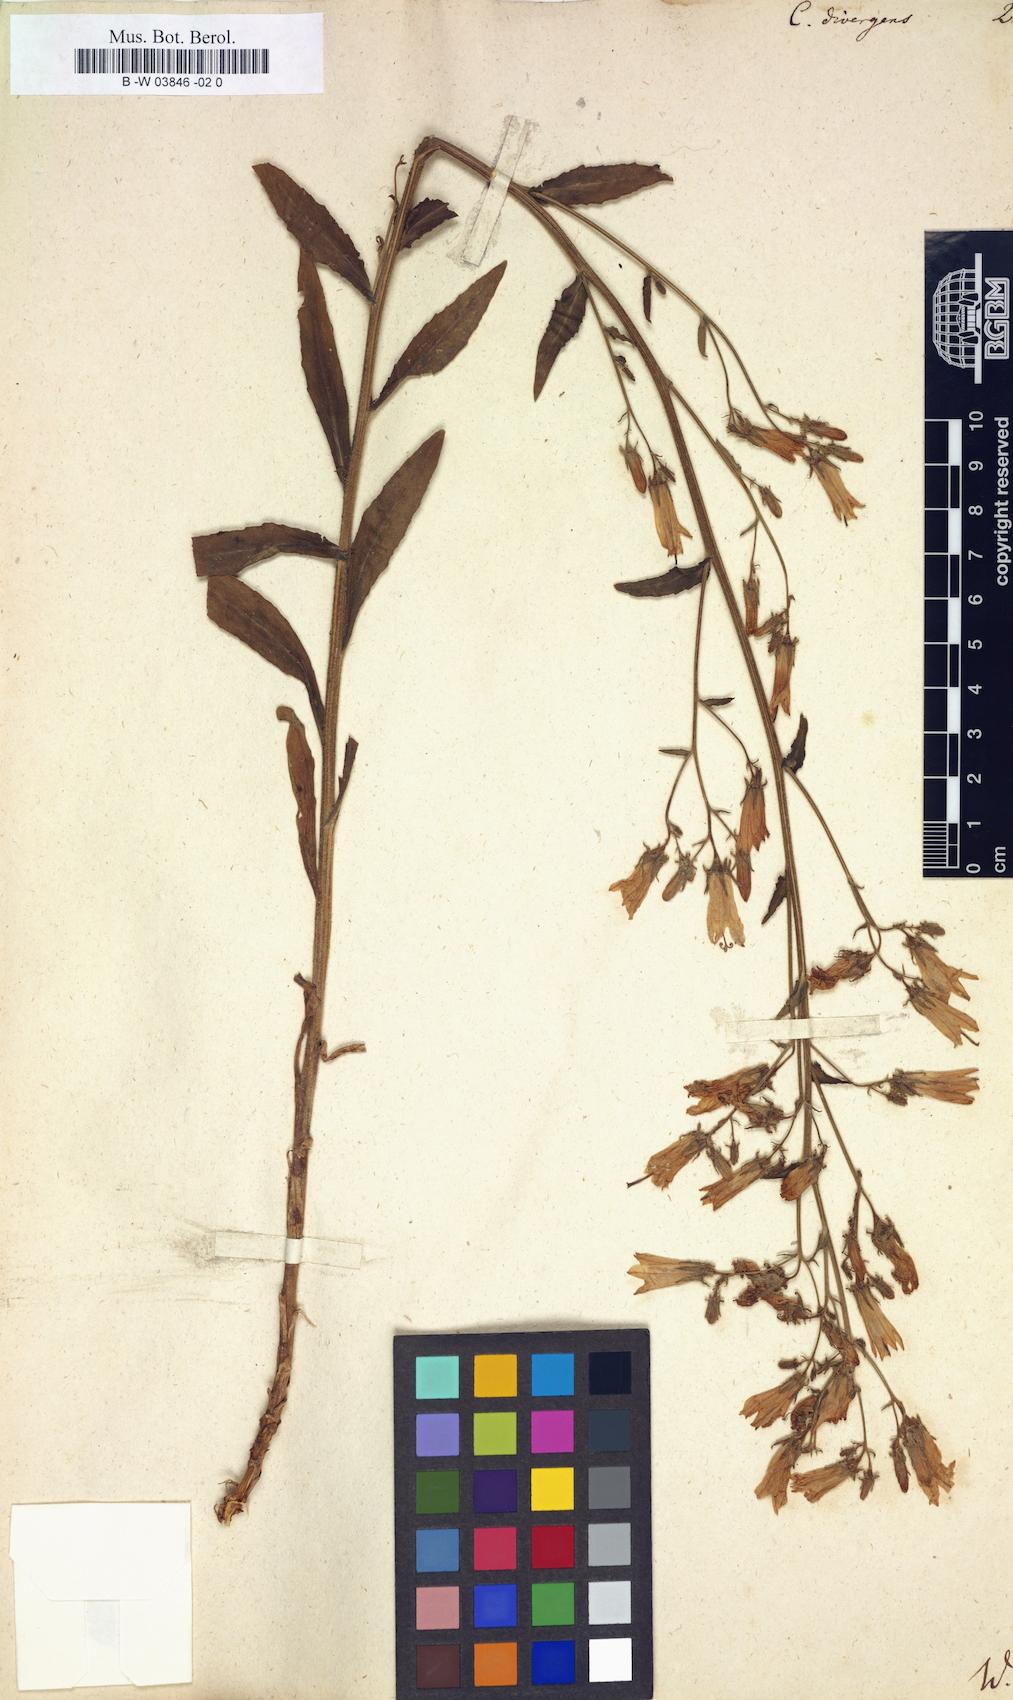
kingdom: Plantae
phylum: Tracheophyta
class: Magnoliopsida
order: Asterales
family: Campanulaceae
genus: Campanula
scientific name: Campanula sibirica
